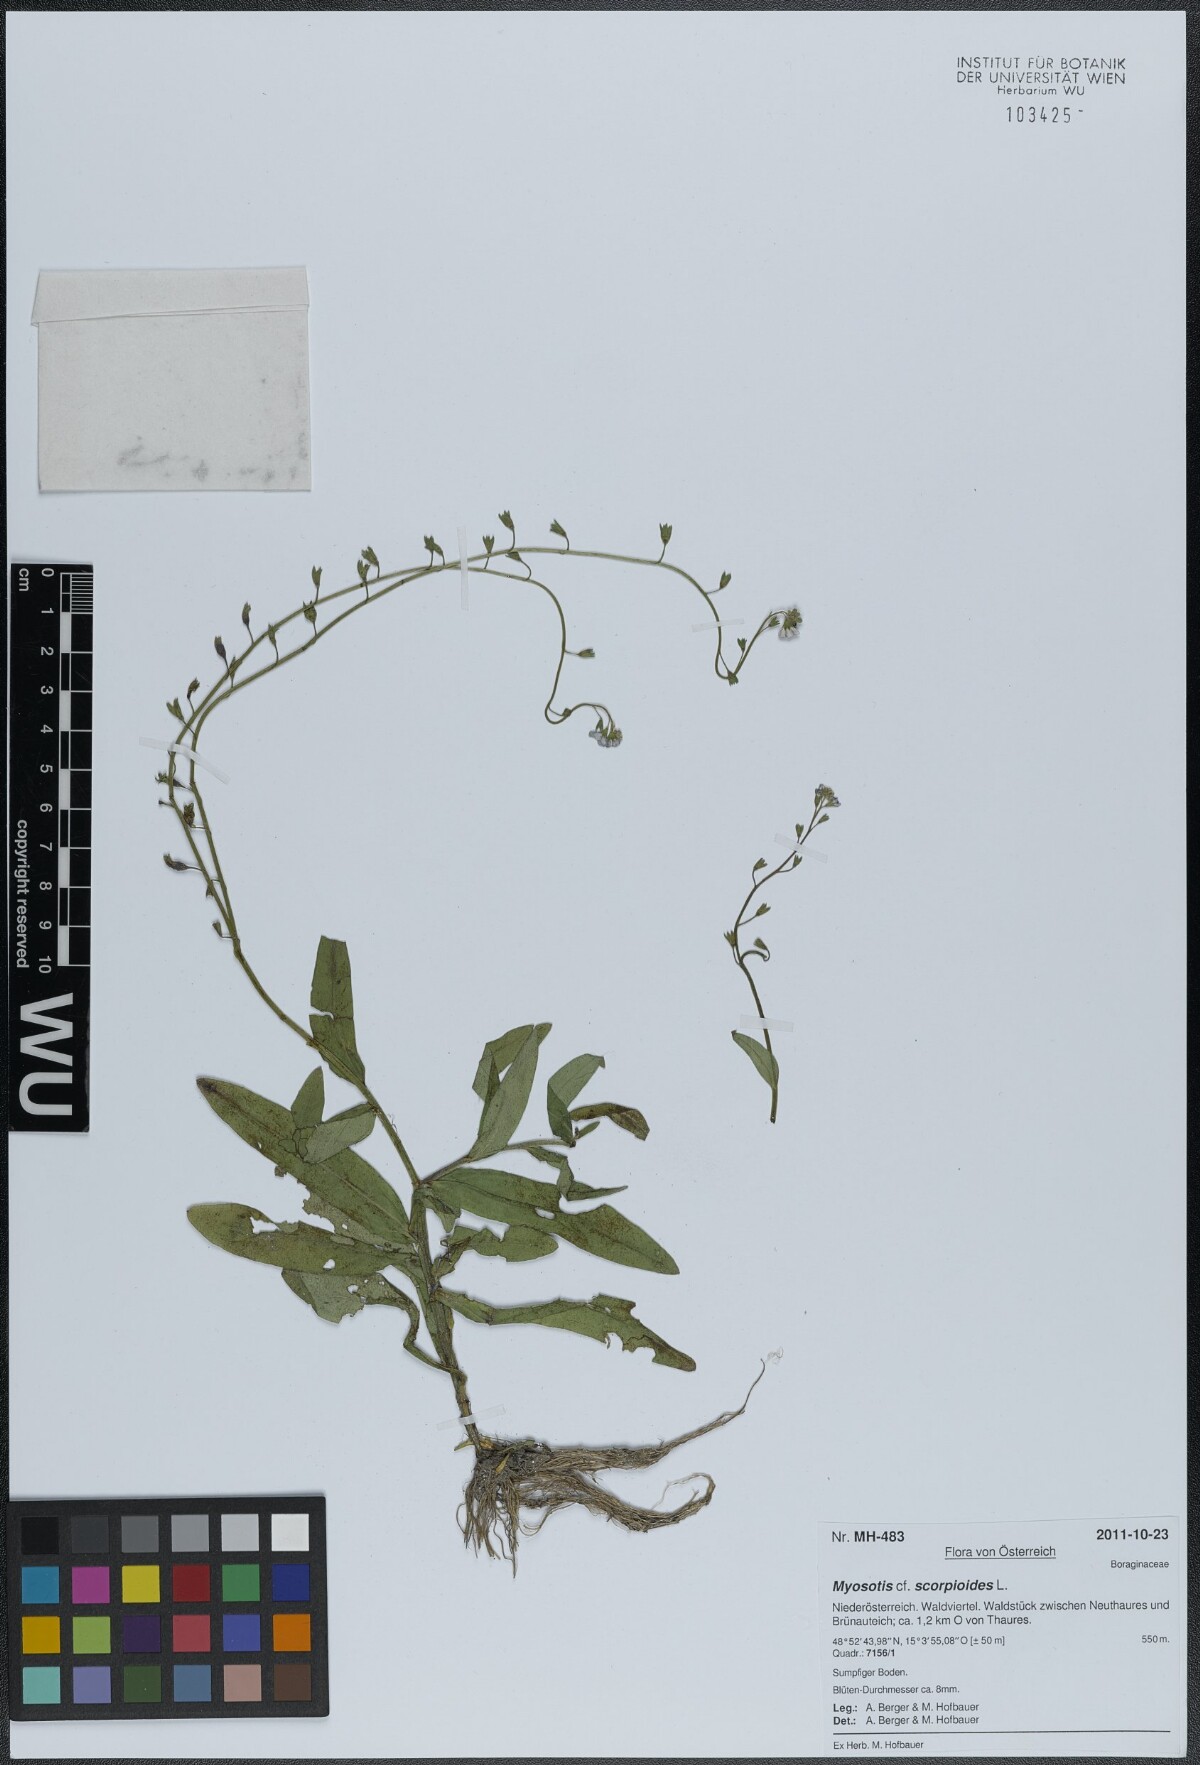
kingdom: Plantae
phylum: Tracheophyta
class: Magnoliopsida
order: Boraginales
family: Boraginaceae
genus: Myosotis
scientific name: Myosotis scorpioides
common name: Water forget-me-not
